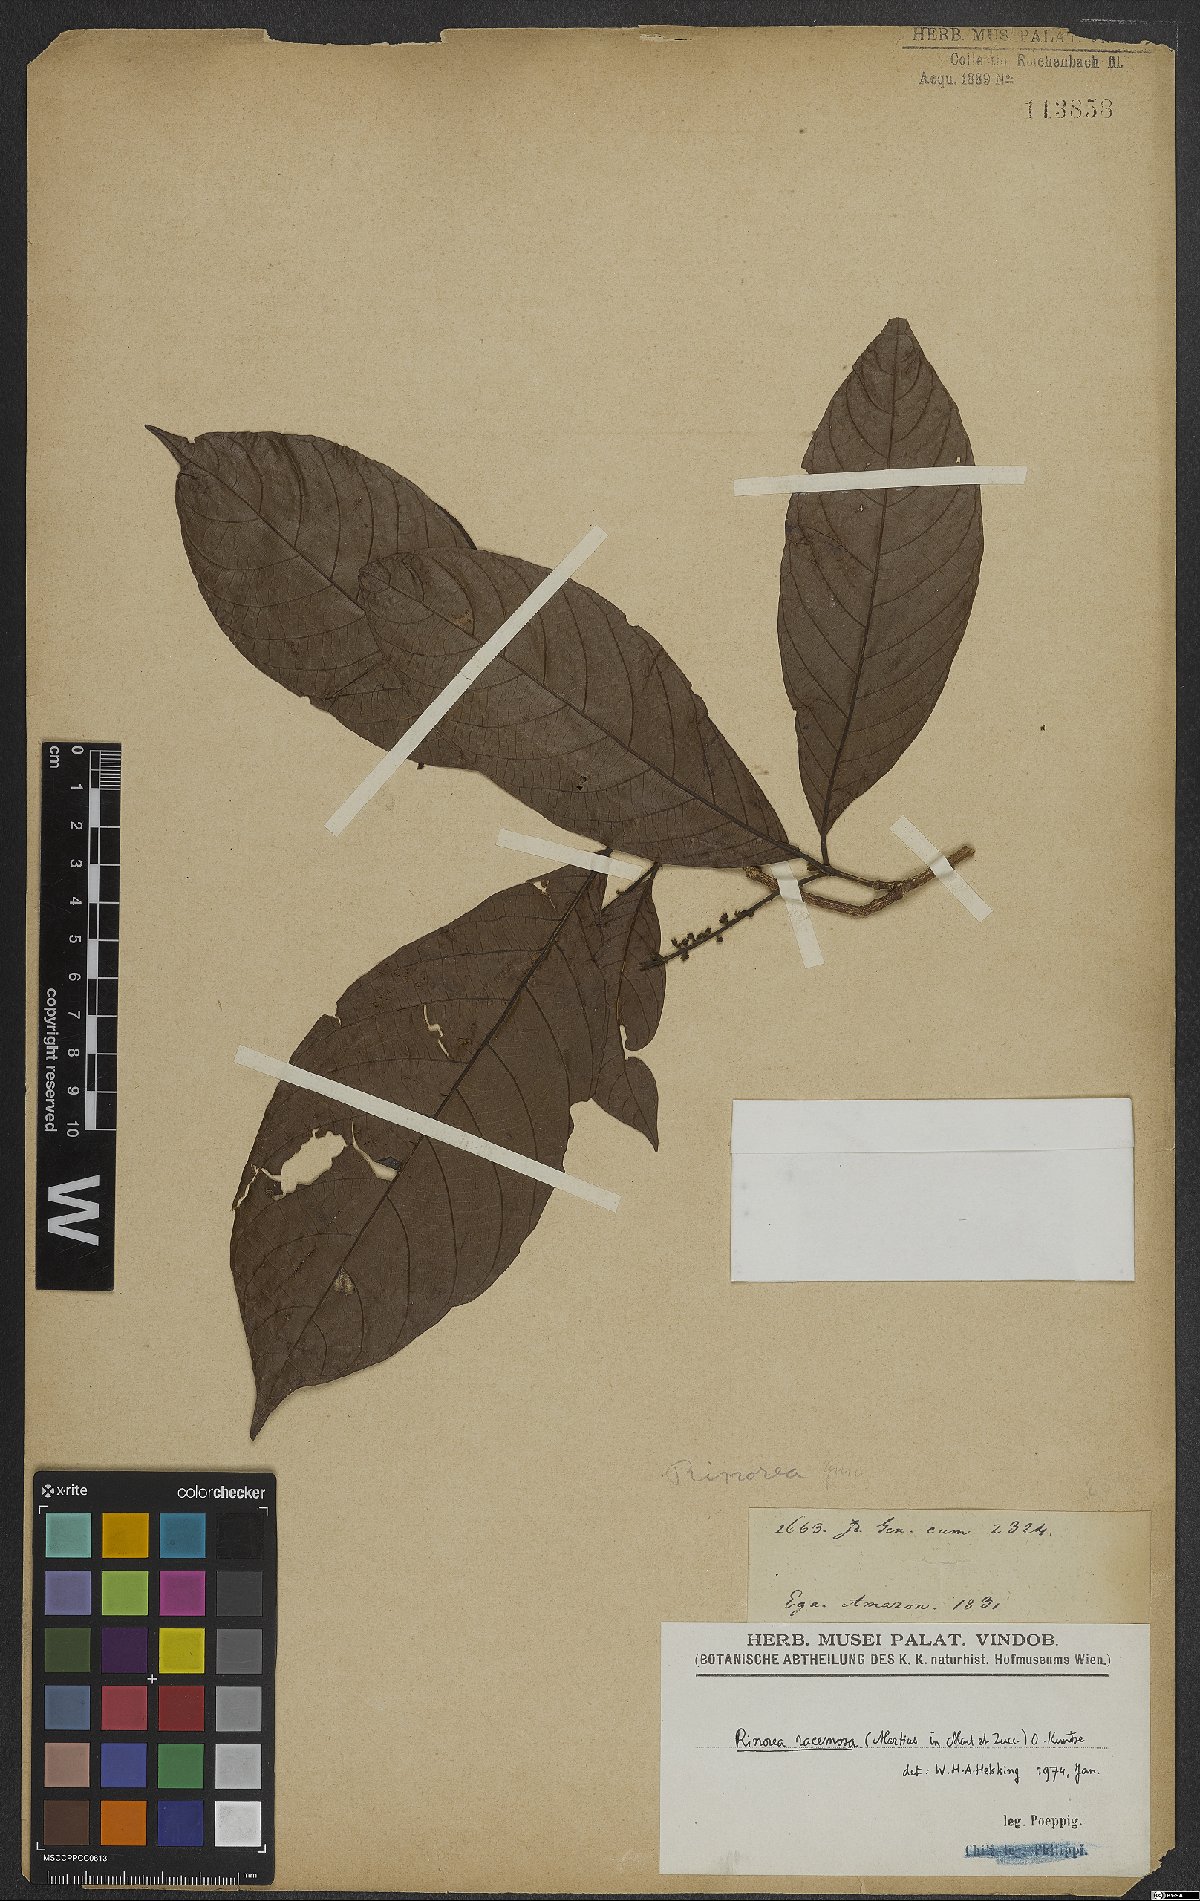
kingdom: Plantae
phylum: Tracheophyta
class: Magnoliopsida
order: Malpighiales
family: Violaceae
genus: Rinorea
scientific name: Rinorea racemosa
